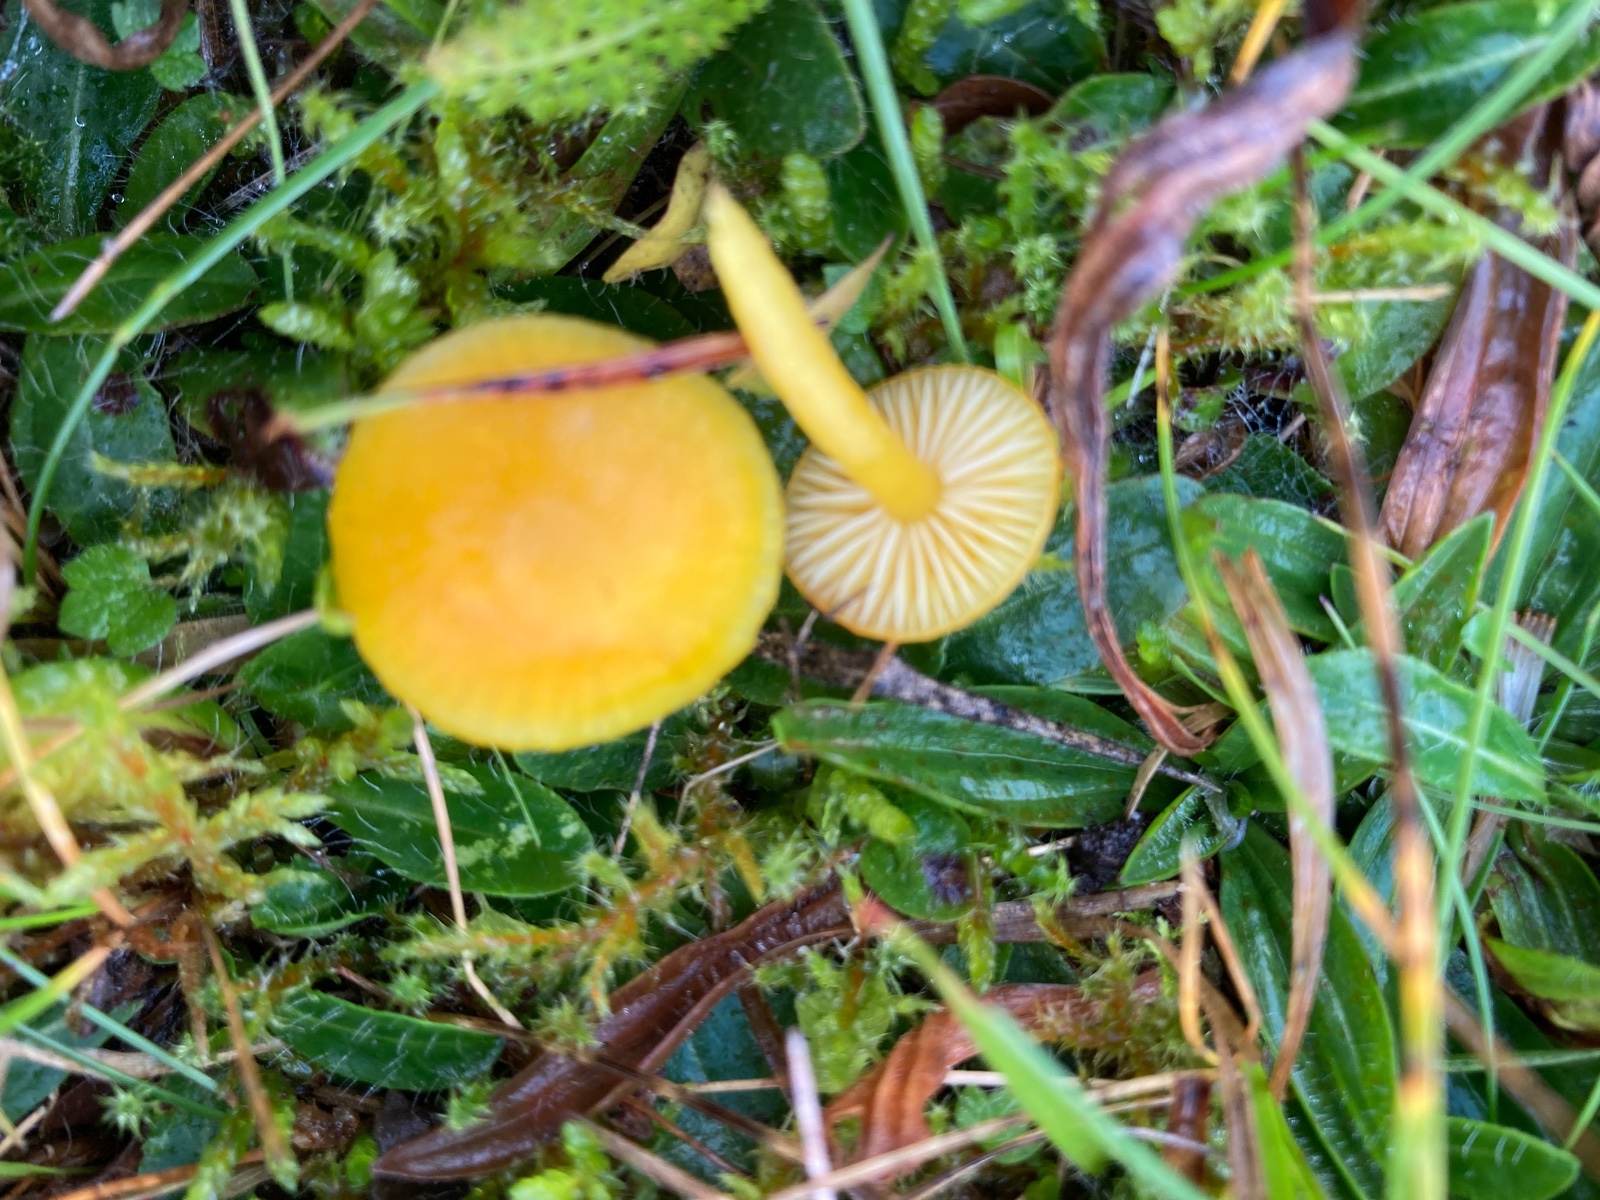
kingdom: Fungi
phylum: Basidiomycota
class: Agaricomycetes
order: Agaricales
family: Hygrophoraceae
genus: Hygrocybe
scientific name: Hygrocybe ceracea
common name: voksgul vokshat
